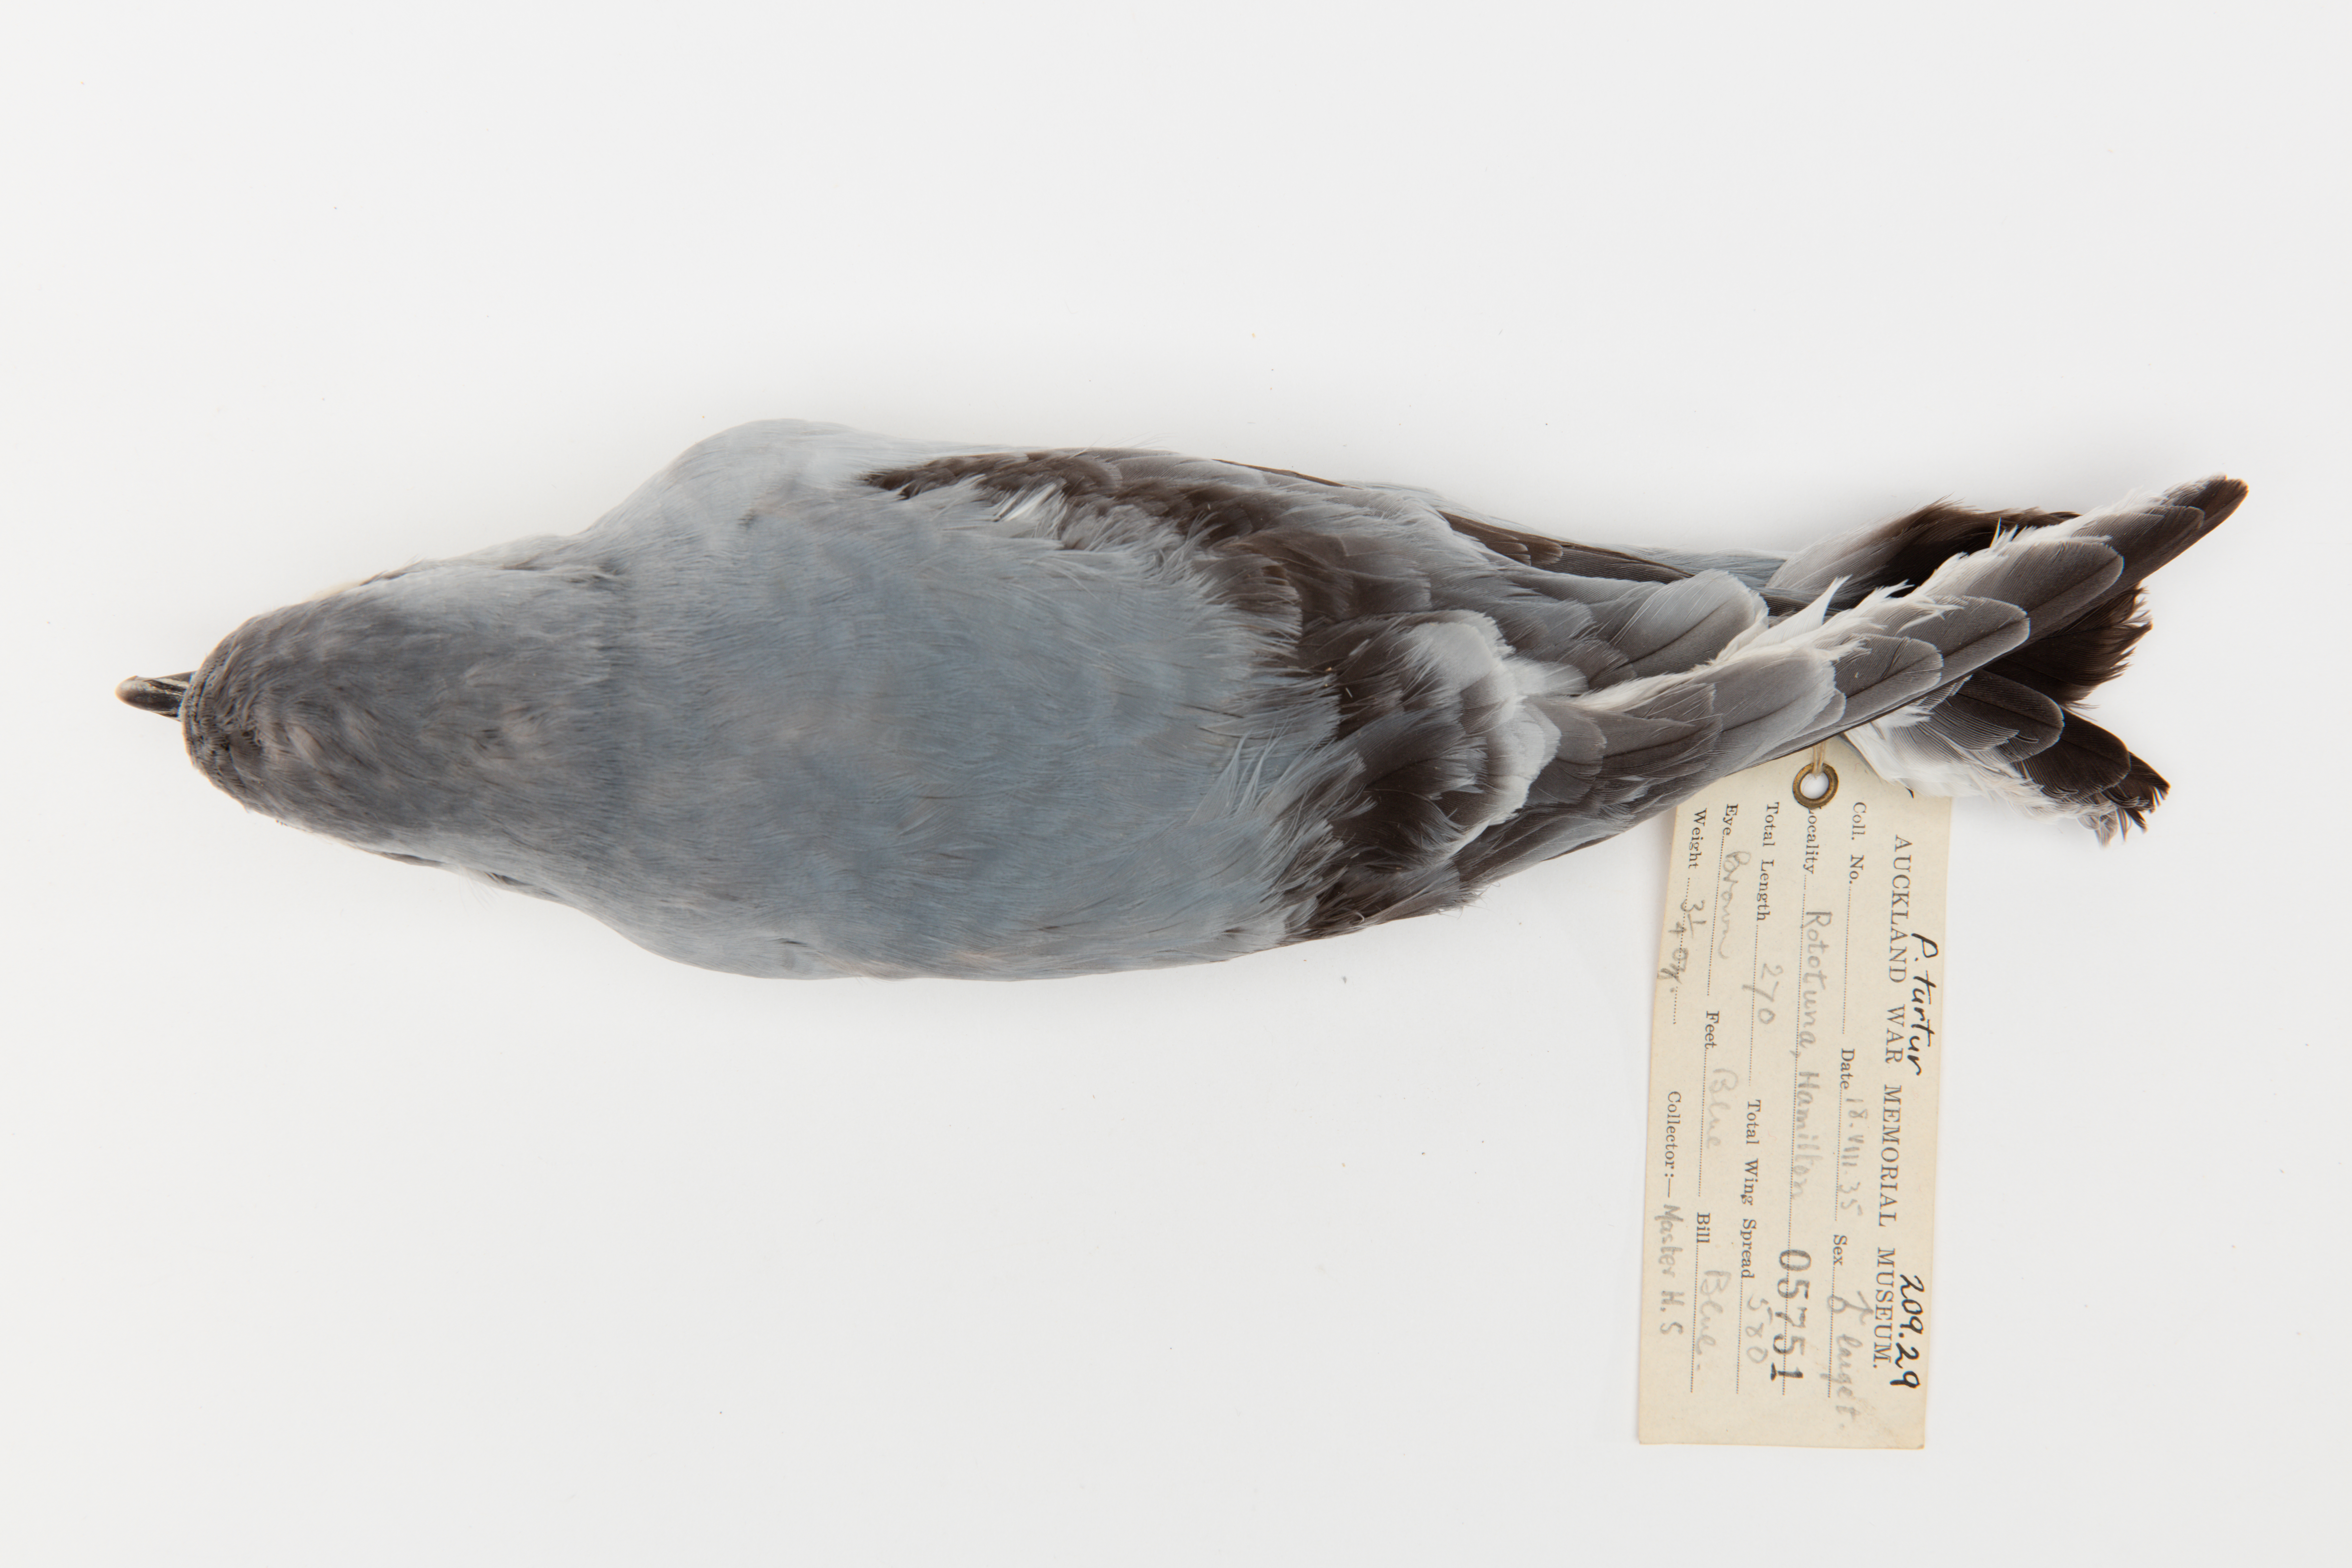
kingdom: Animalia
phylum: Chordata
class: Aves
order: Procellariiformes
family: Procellariidae
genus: Pachyptila
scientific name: Pachyptila turtur
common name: Fairy prion
